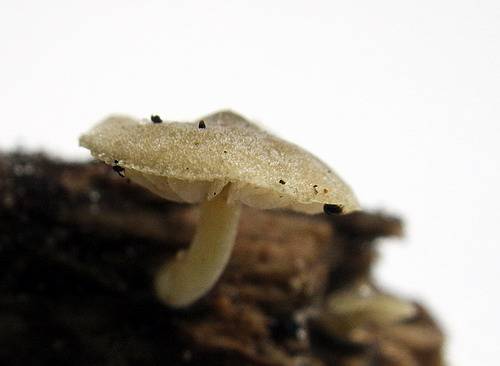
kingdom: Fungi
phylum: Basidiomycota
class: Agaricomycetes
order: Agaricales
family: Crepidotaceae
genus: Simocybe
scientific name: Simocybe haustellaris
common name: skæv skyggehat
